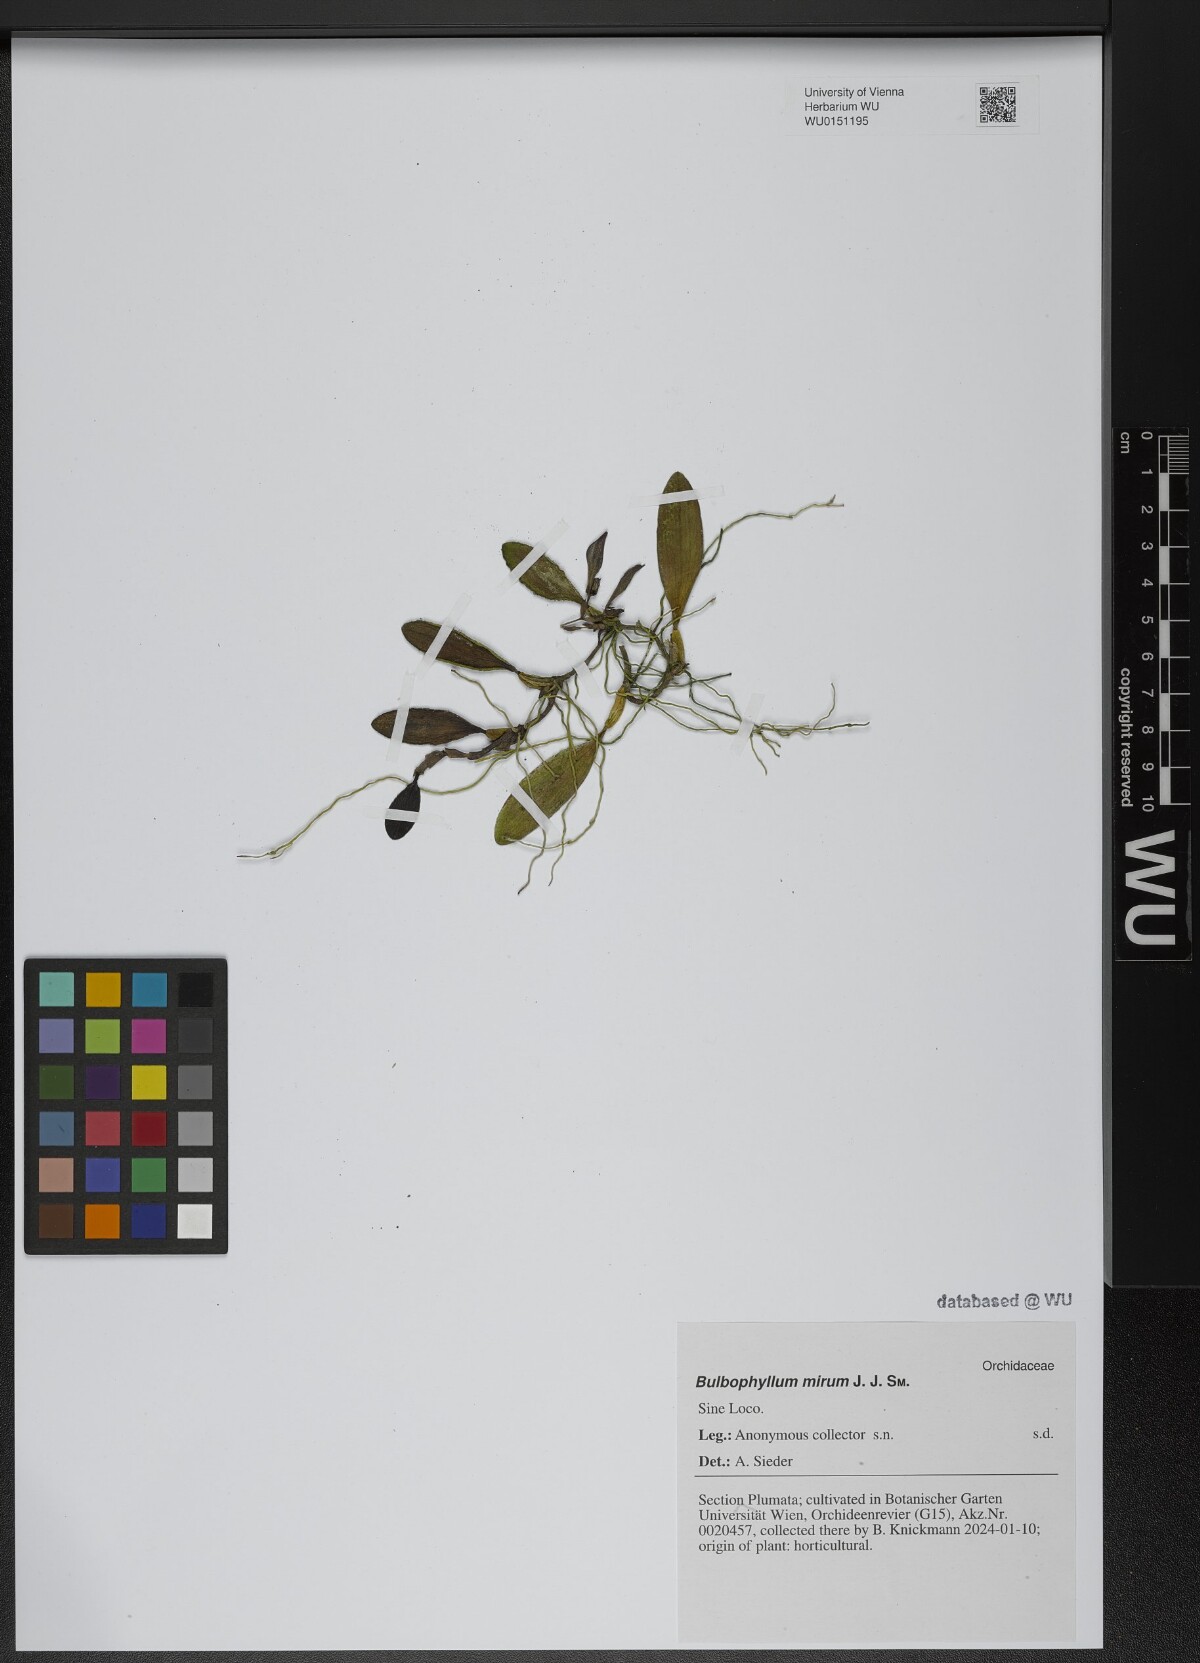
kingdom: Plantae
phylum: Tracheophyta
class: Liliopsida
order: Asparagales
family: Orchidaceae
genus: Bulbophyllum
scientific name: Bulbophyllum mirum
